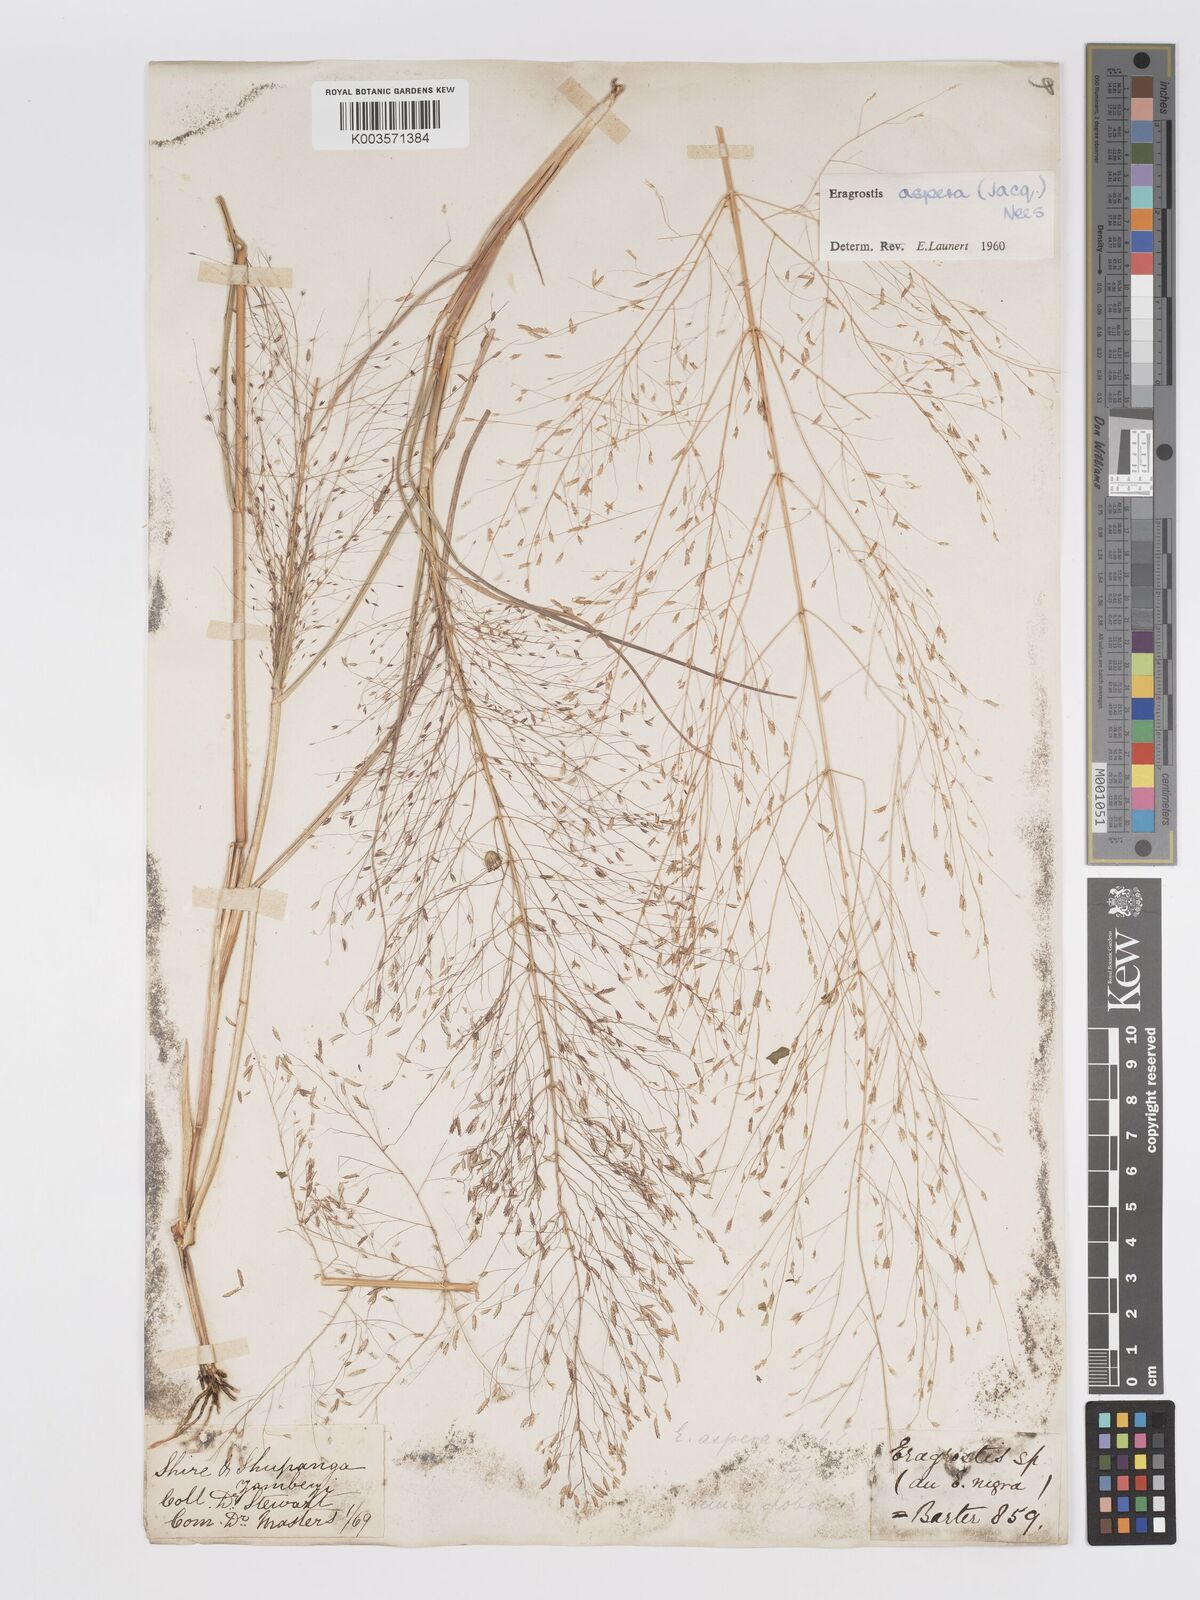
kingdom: Plantae
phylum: Tracheophyta
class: Liliopsida
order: Poales
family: Poaceae
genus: Eragrostis
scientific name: Eragrostis aspera
